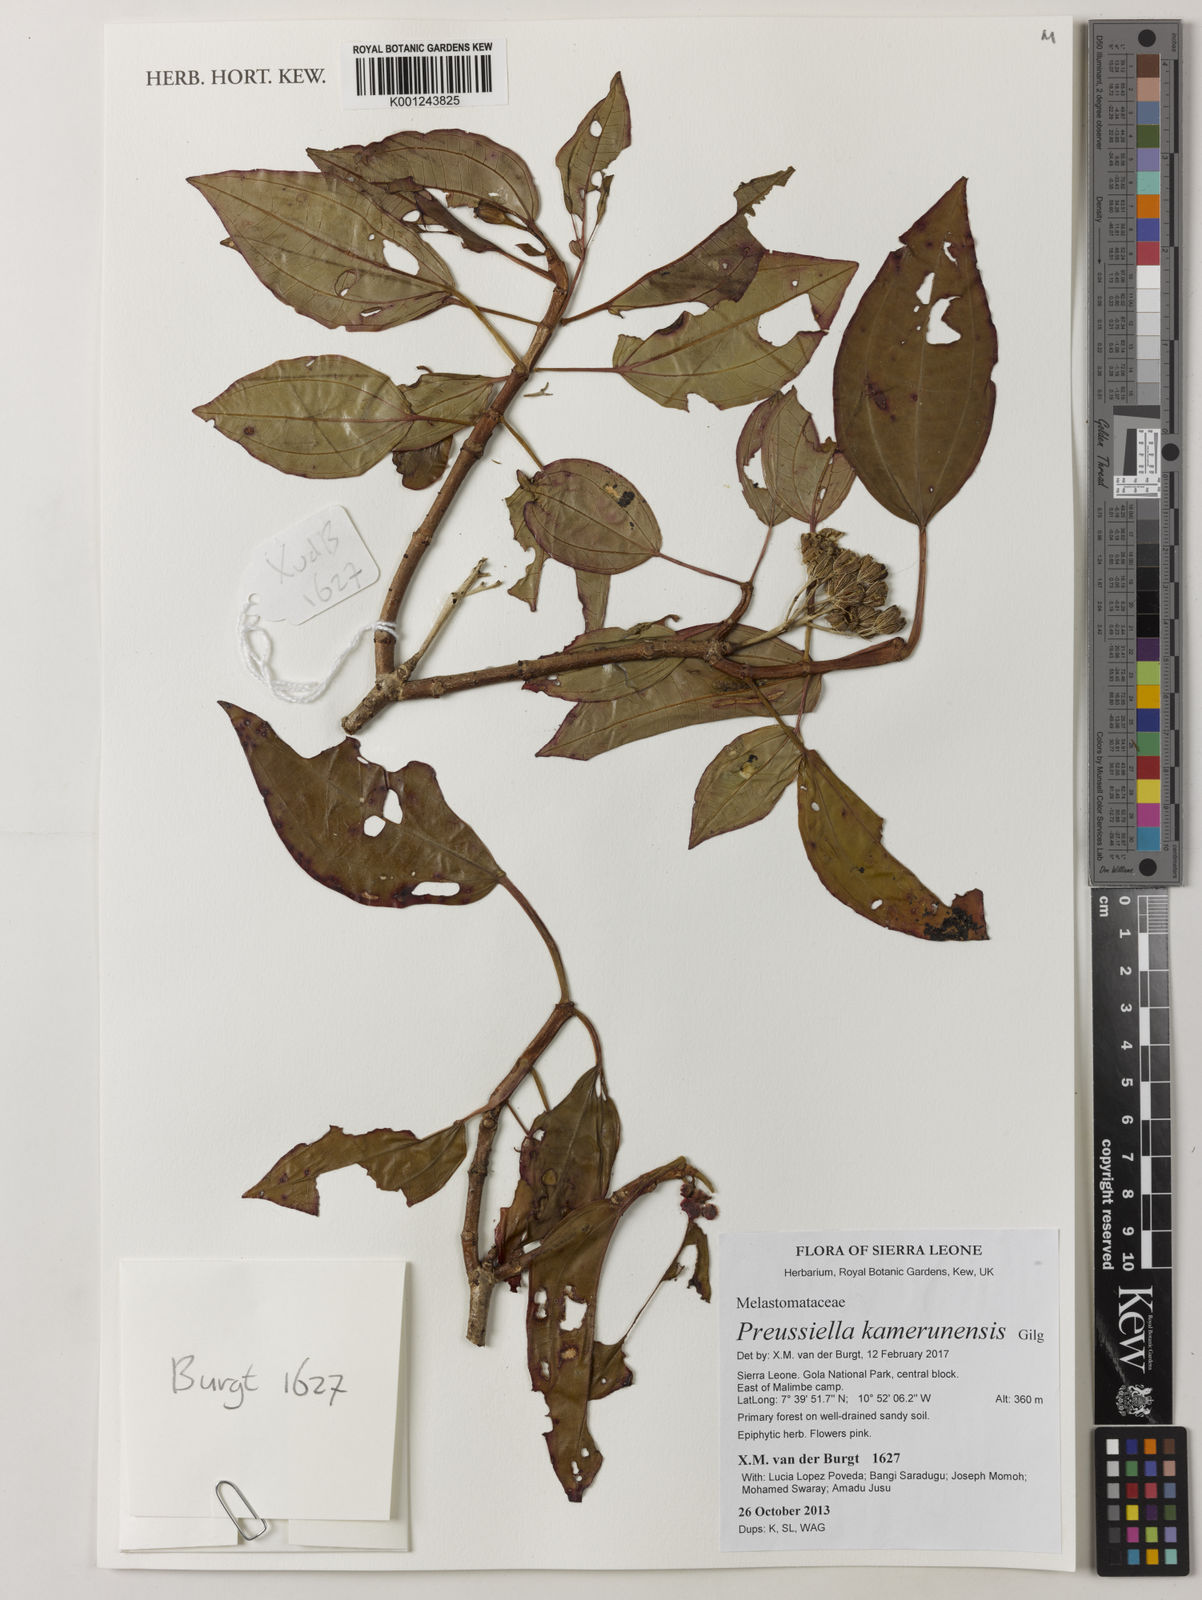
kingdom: Plantae
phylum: Tracheophyta
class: Magnoliopsida
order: Myrtales
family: Melastomataceae
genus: Preussiella
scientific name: Preussiella kamerunensis
